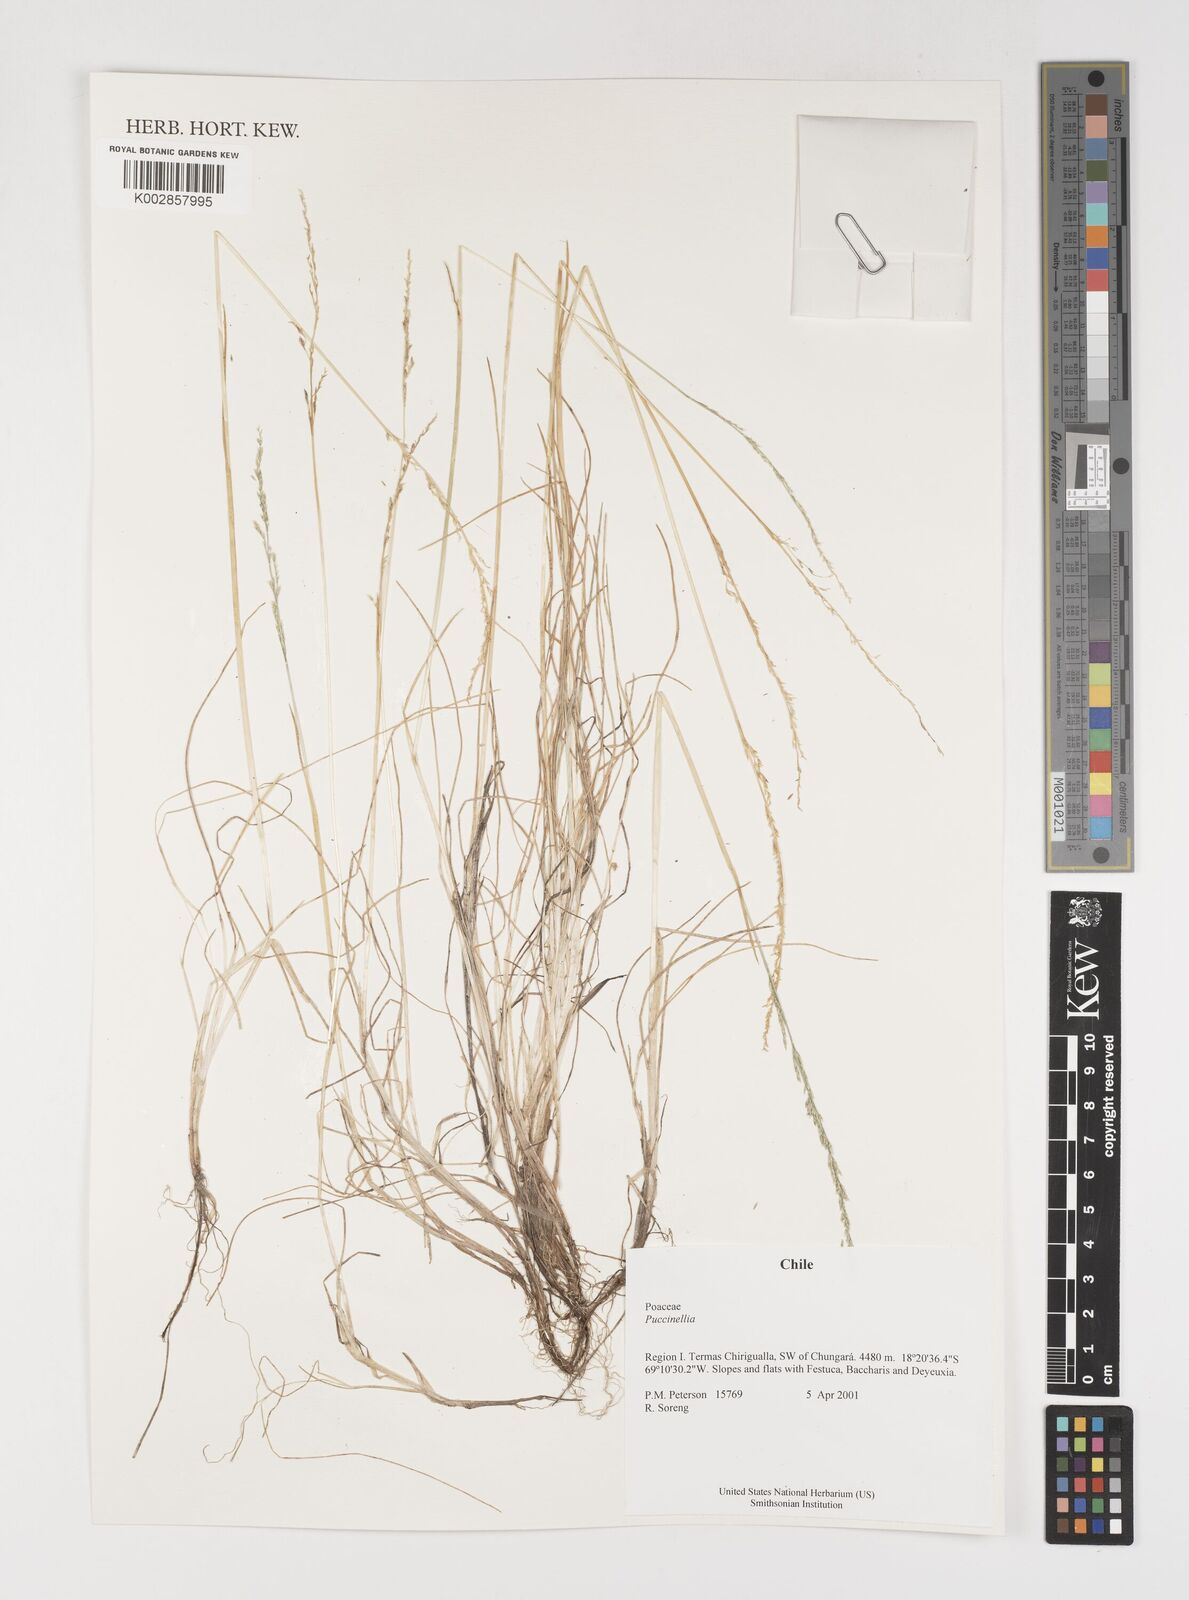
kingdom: Plantae
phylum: Tracheophyta
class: Liliopsida
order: Poales
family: Poaceae
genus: Puccinellia
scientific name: Puccinellia
